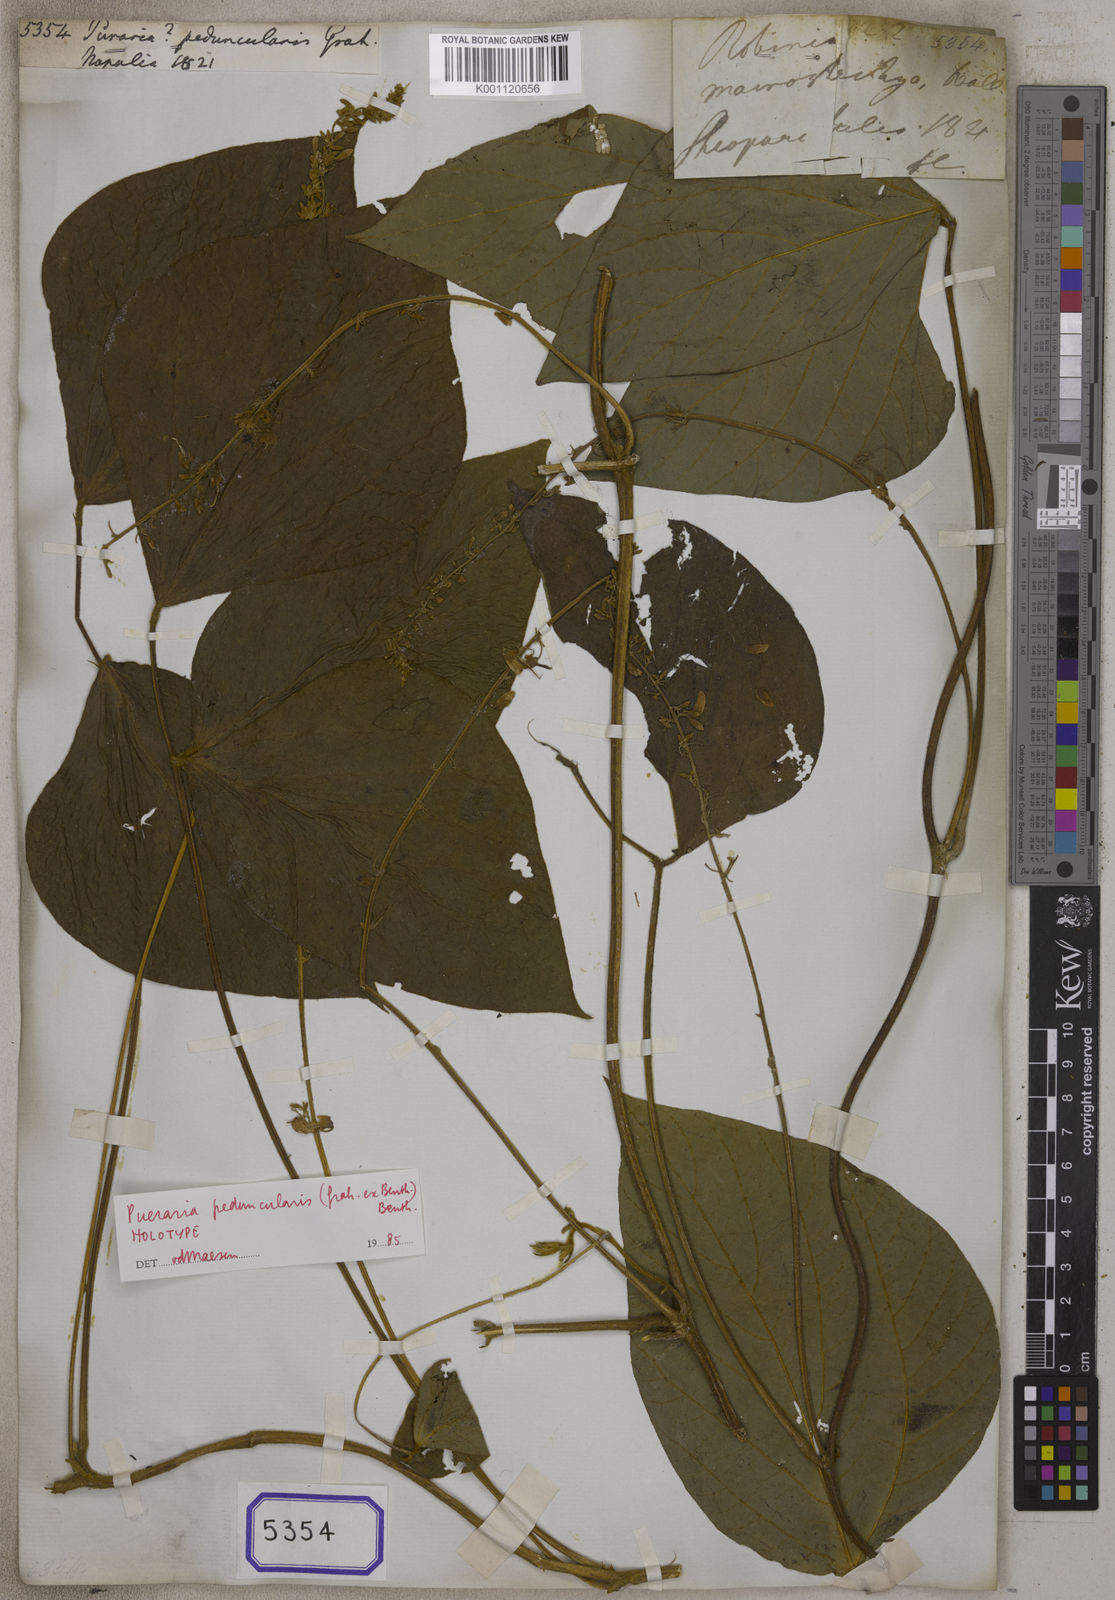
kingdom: Plantae
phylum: Tracheophyta
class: Magnoliopsida
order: Fabales
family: Fabaceae
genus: Pueraria
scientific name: Pueraria
